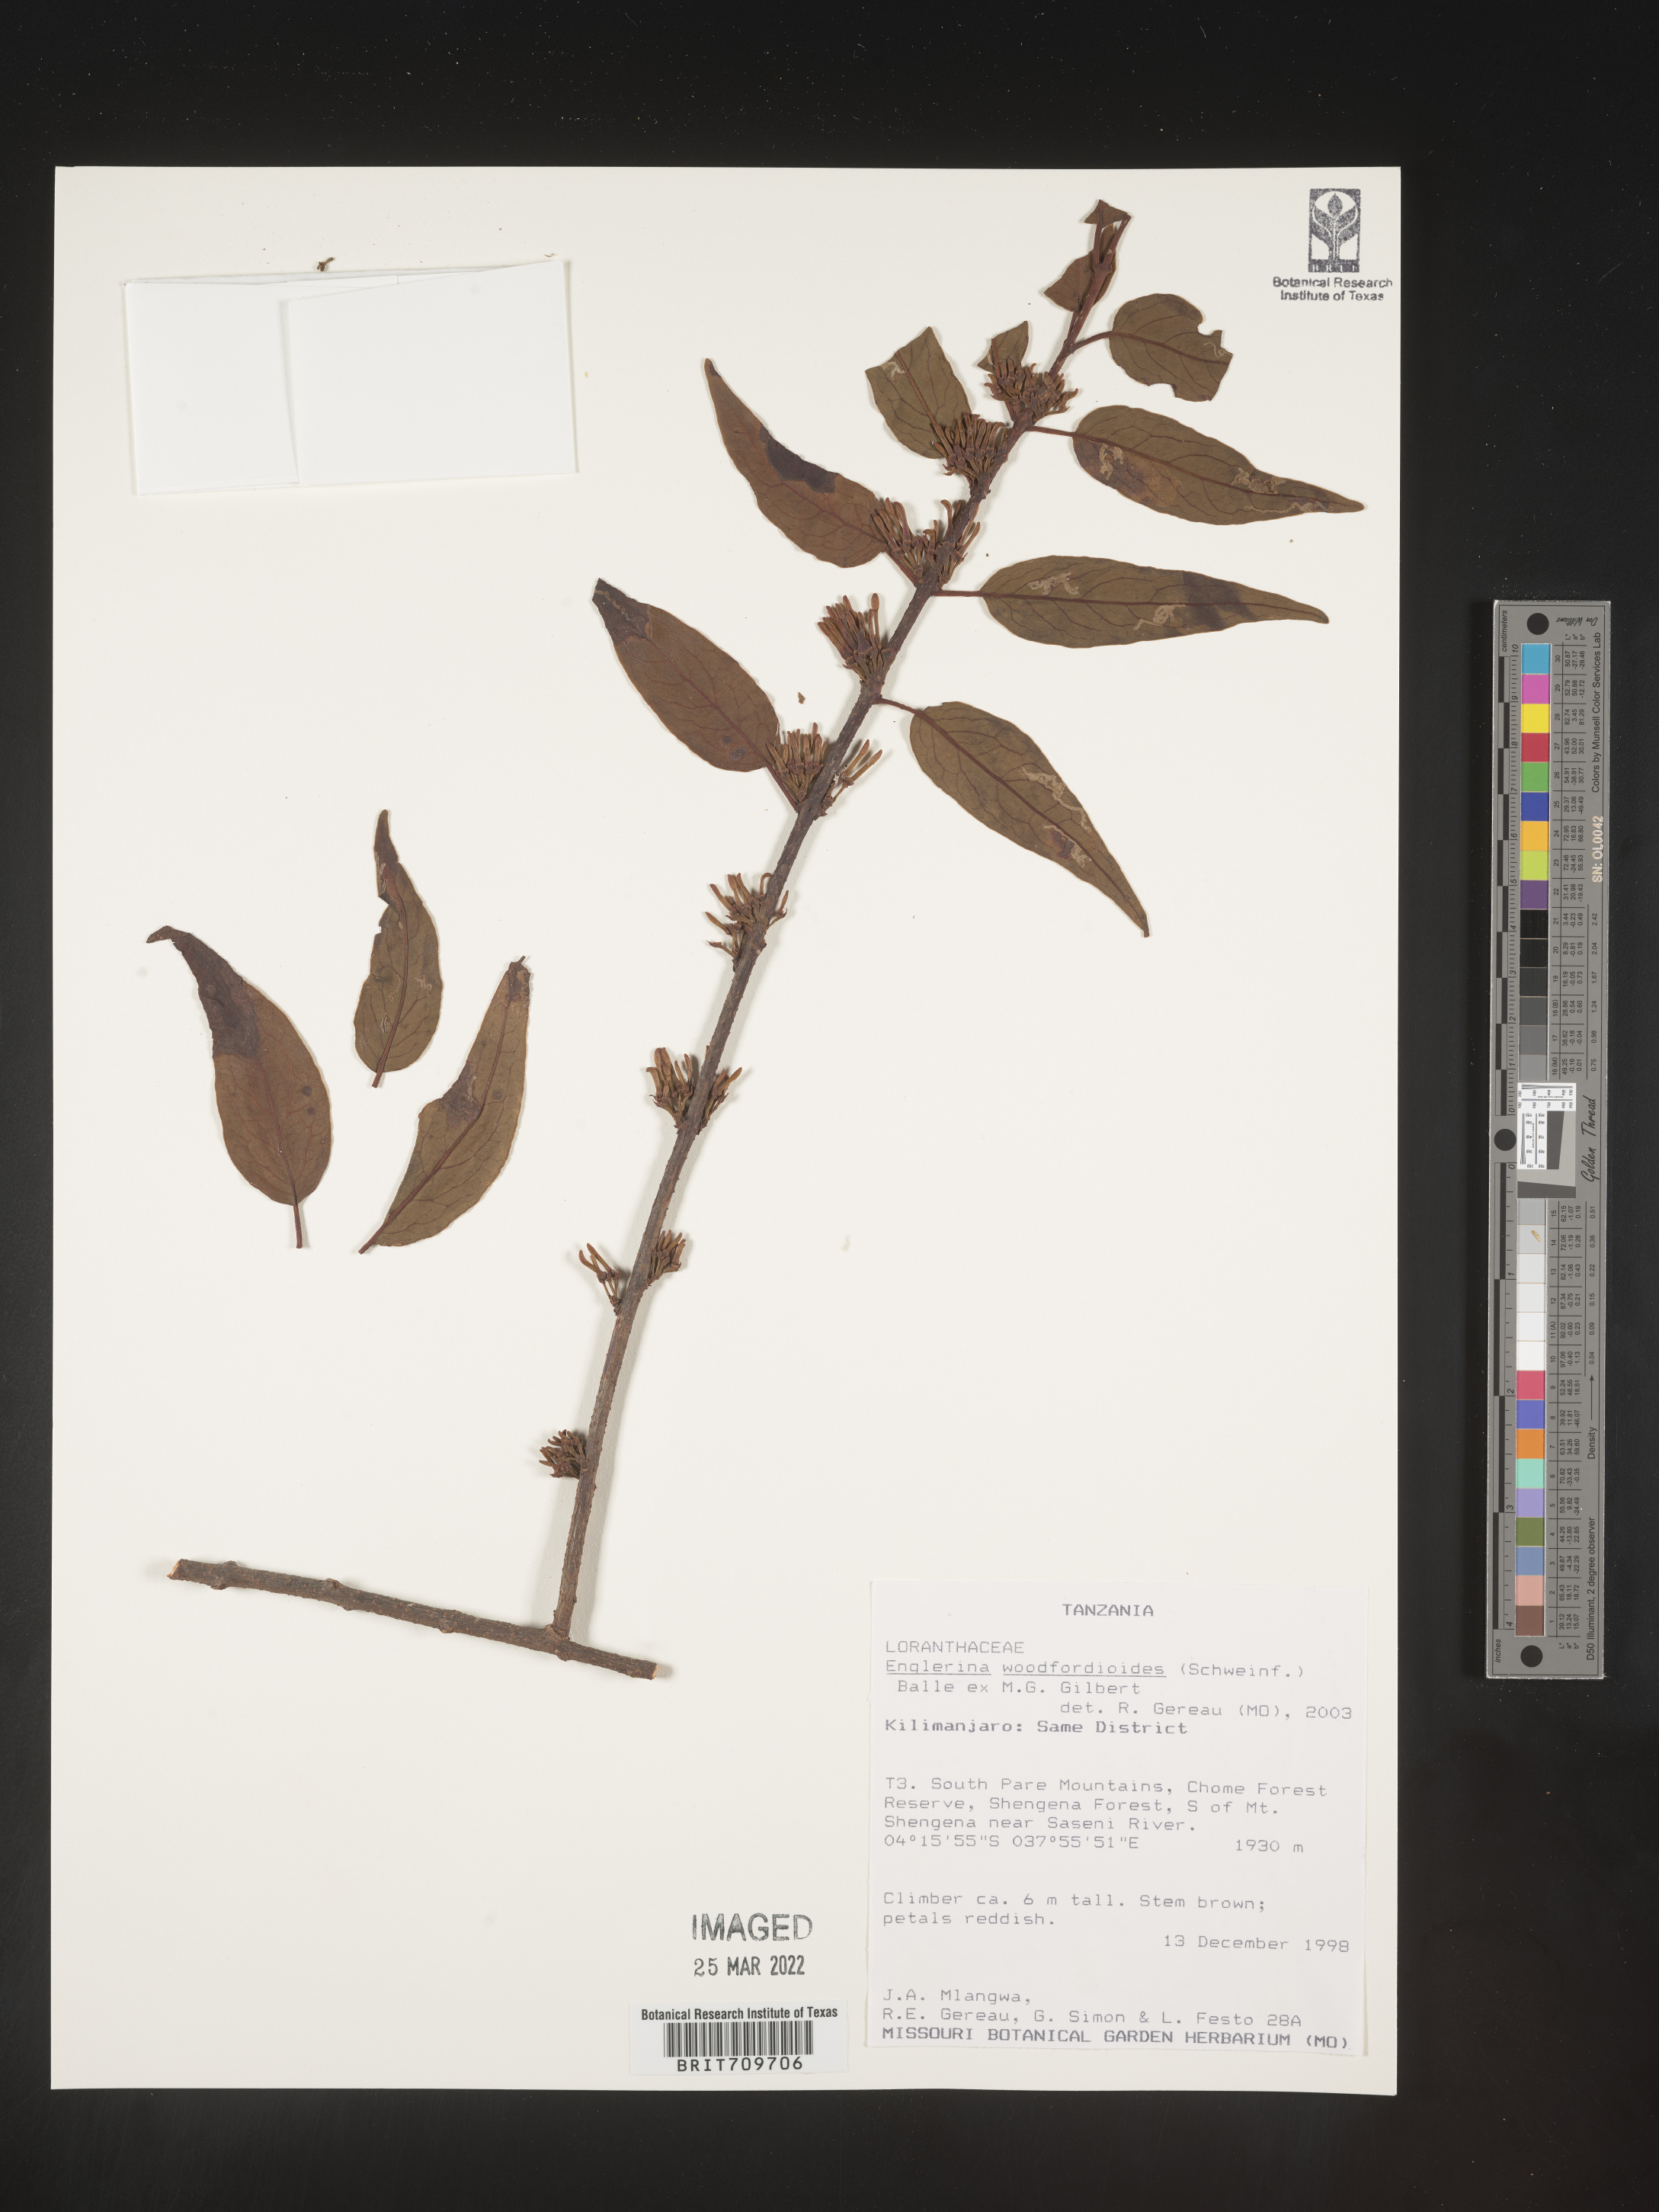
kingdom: Plantae
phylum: Tracheophyta
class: Magnoliopsida
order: Santalales
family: Loranthaceae
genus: Englerina
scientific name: Englerina
